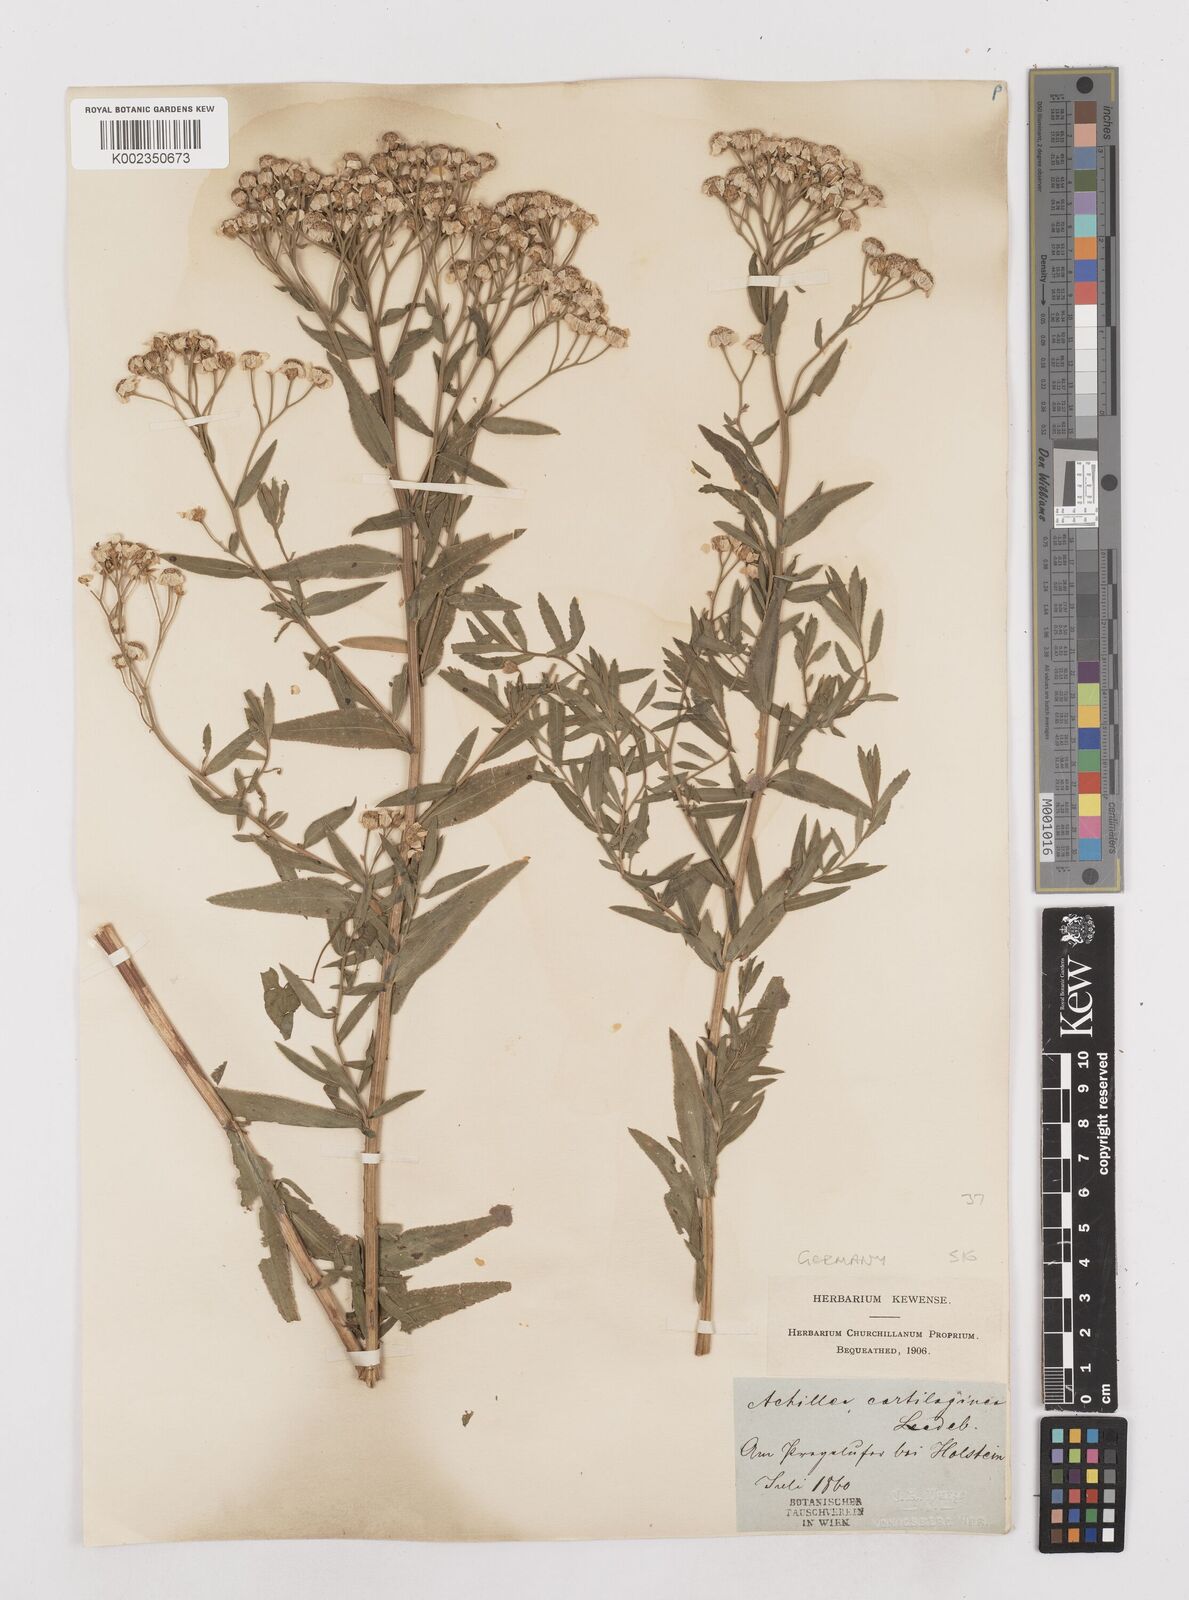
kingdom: Plantae
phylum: Tracheophyta
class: Magnoliopsida
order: Asterales
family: Asteraceae
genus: Achillea
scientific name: Achillea salicifolia
